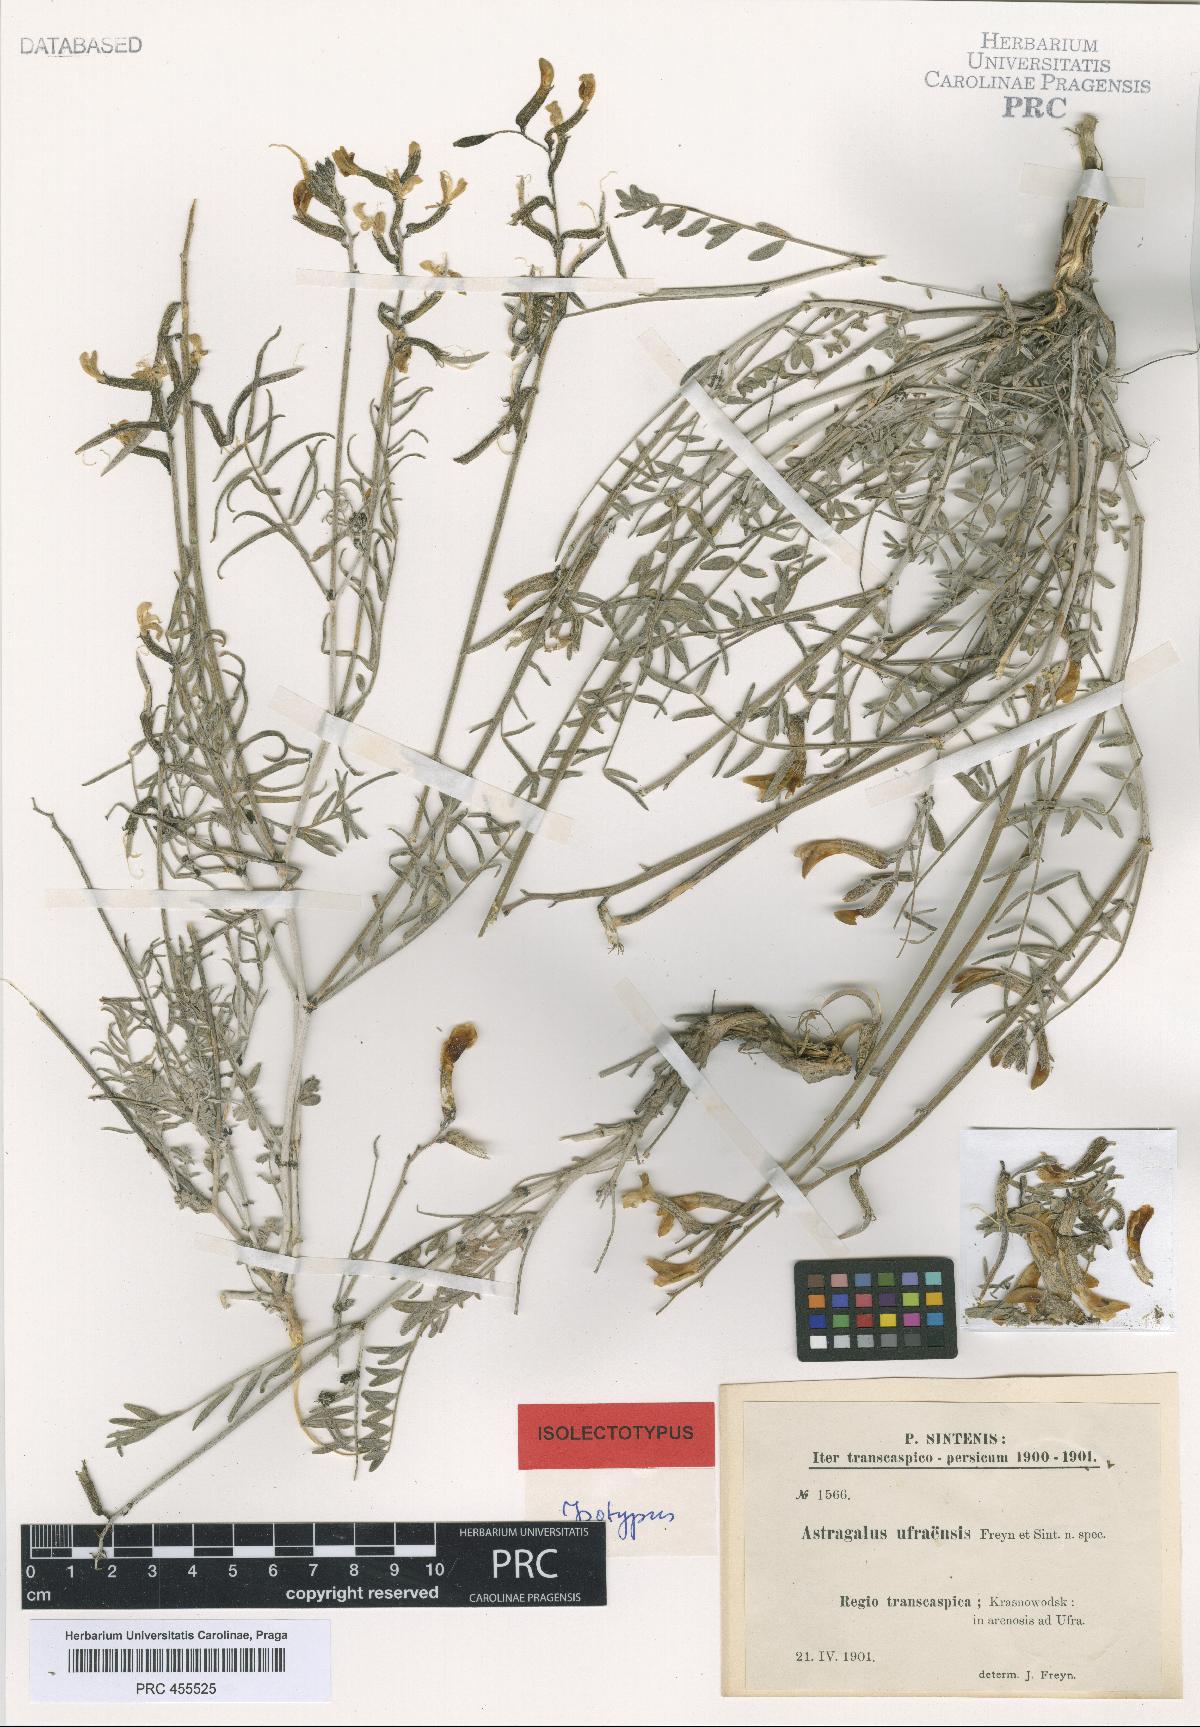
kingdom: Plantae
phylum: Tracheophyta
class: Magnoliopsida
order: Fabales
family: Fabaceae
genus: Astragalus
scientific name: Astragalus juratzkanus
